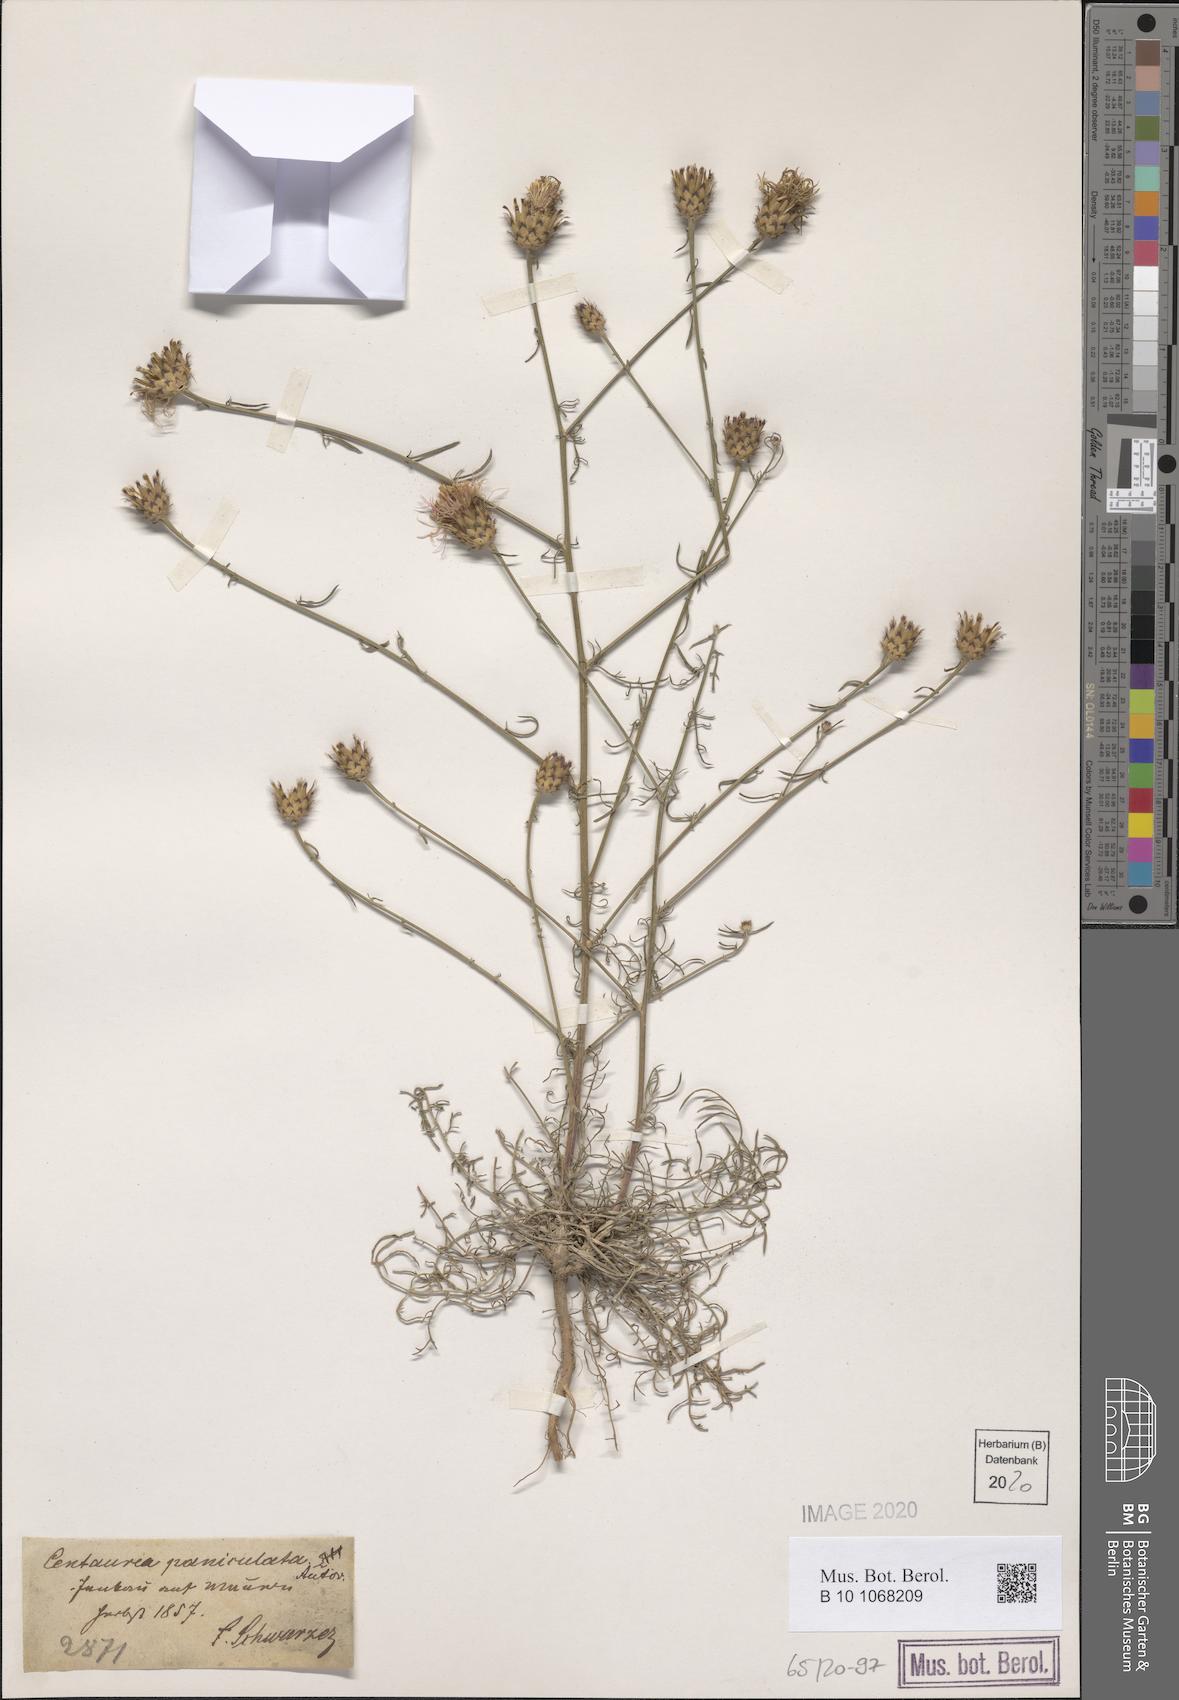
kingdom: Plantae
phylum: Tracheophyta
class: Magnoliopsida
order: Asterales
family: Asteraceae
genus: Centaurea
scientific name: Centaurea stoebe
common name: Spotted knapweed
